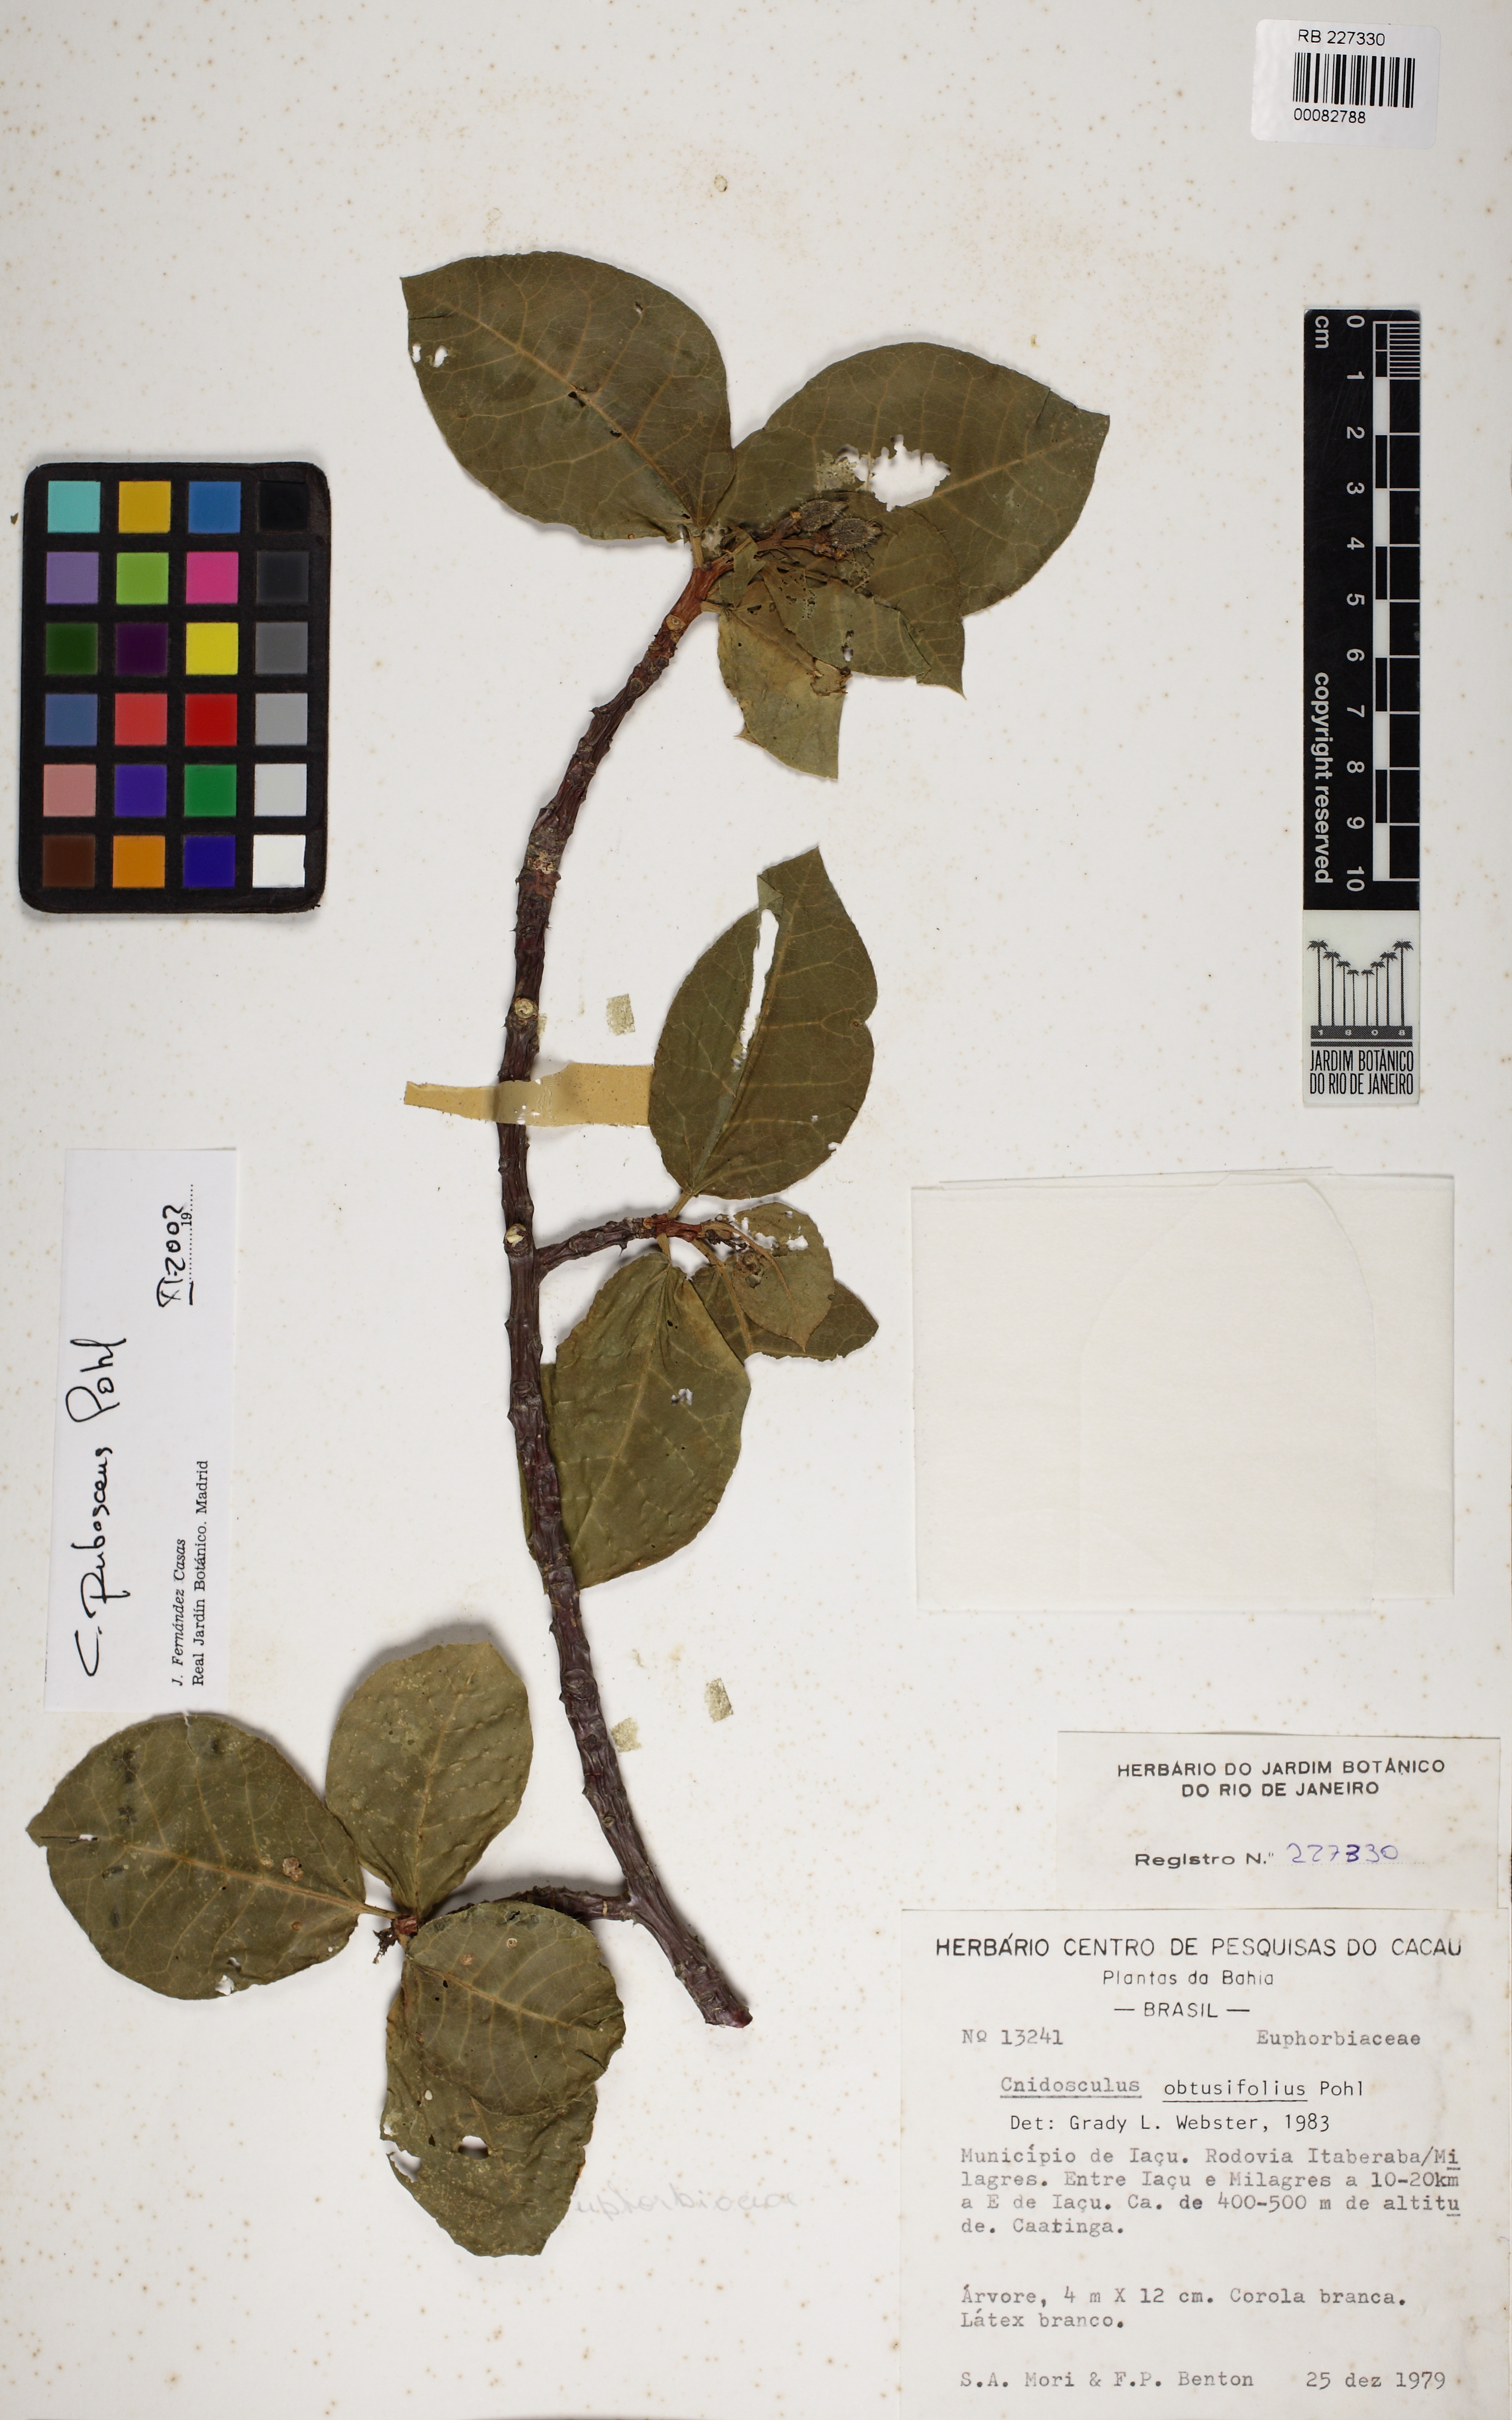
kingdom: Plantae
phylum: Tracheophyta
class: Magnoliopsida
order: Malpighiales
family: Euphorbiaceae
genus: Cnidoscolus
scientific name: Cnidoscolus pubescens
